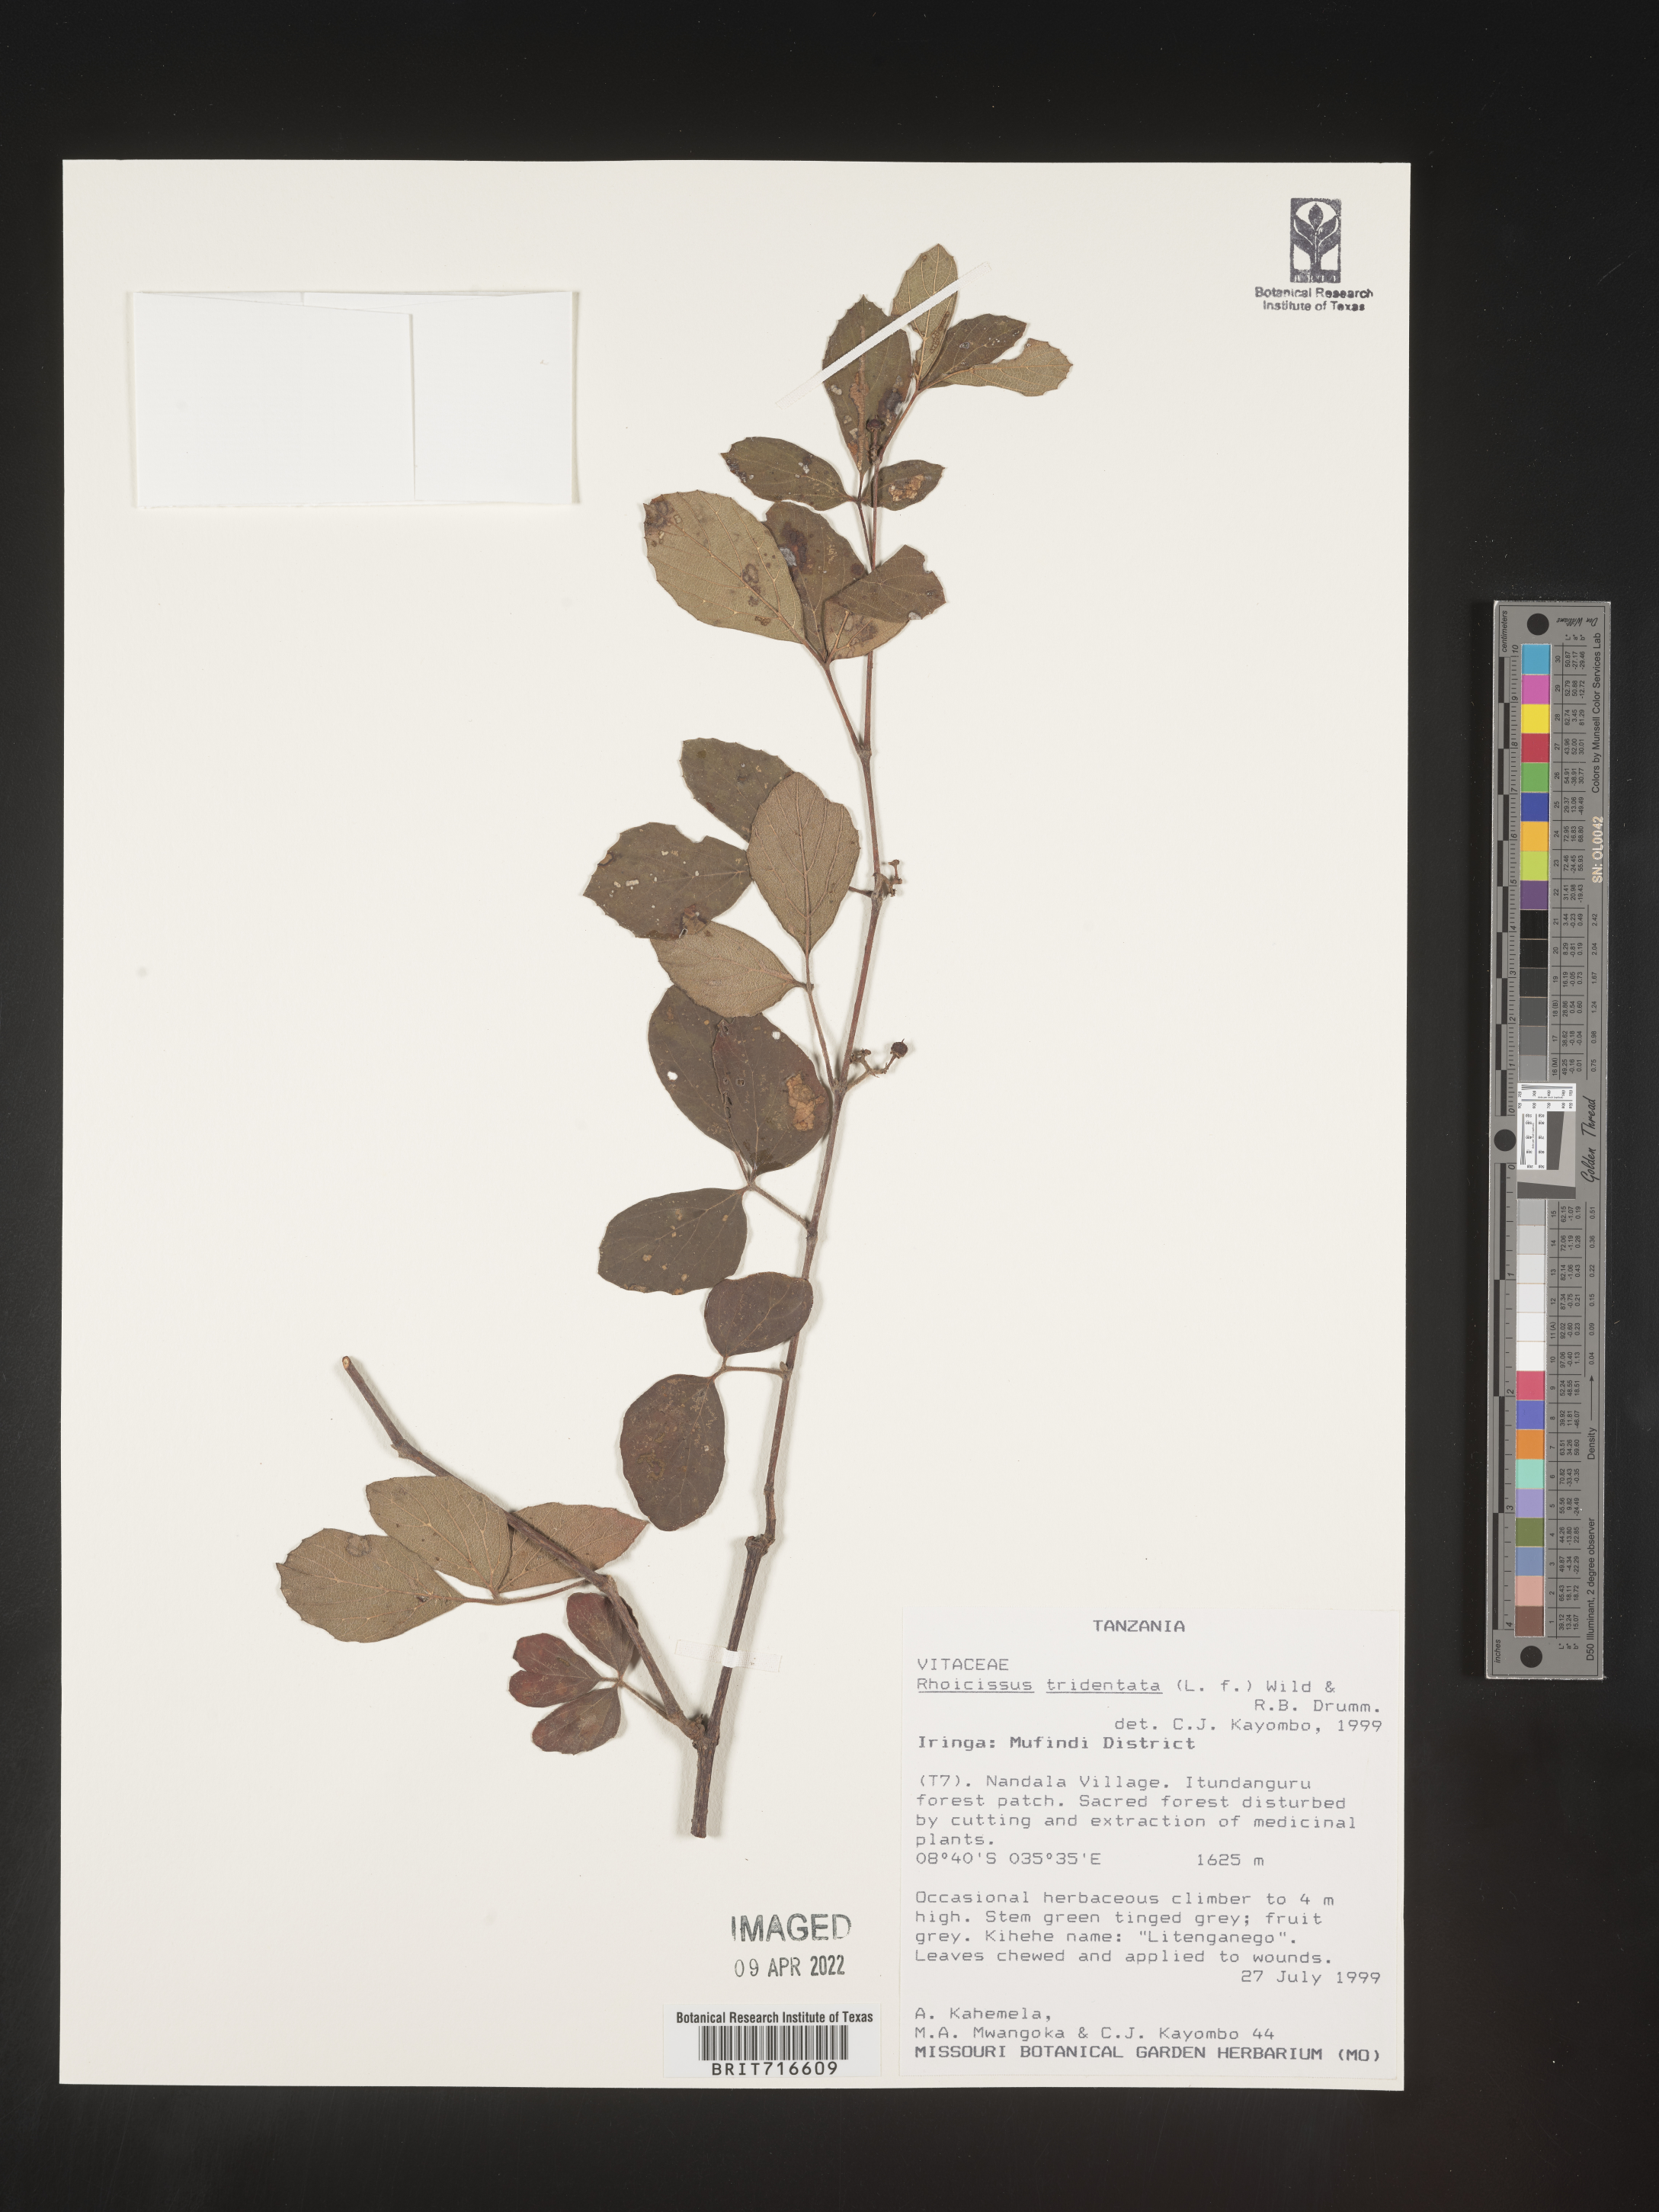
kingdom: Plantae
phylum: Tracheophyta
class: Magnoliopsida
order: Vitales
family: Vitaceae
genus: Rhoicissus
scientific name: Rhoicissus tridentata
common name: Common forest grape
